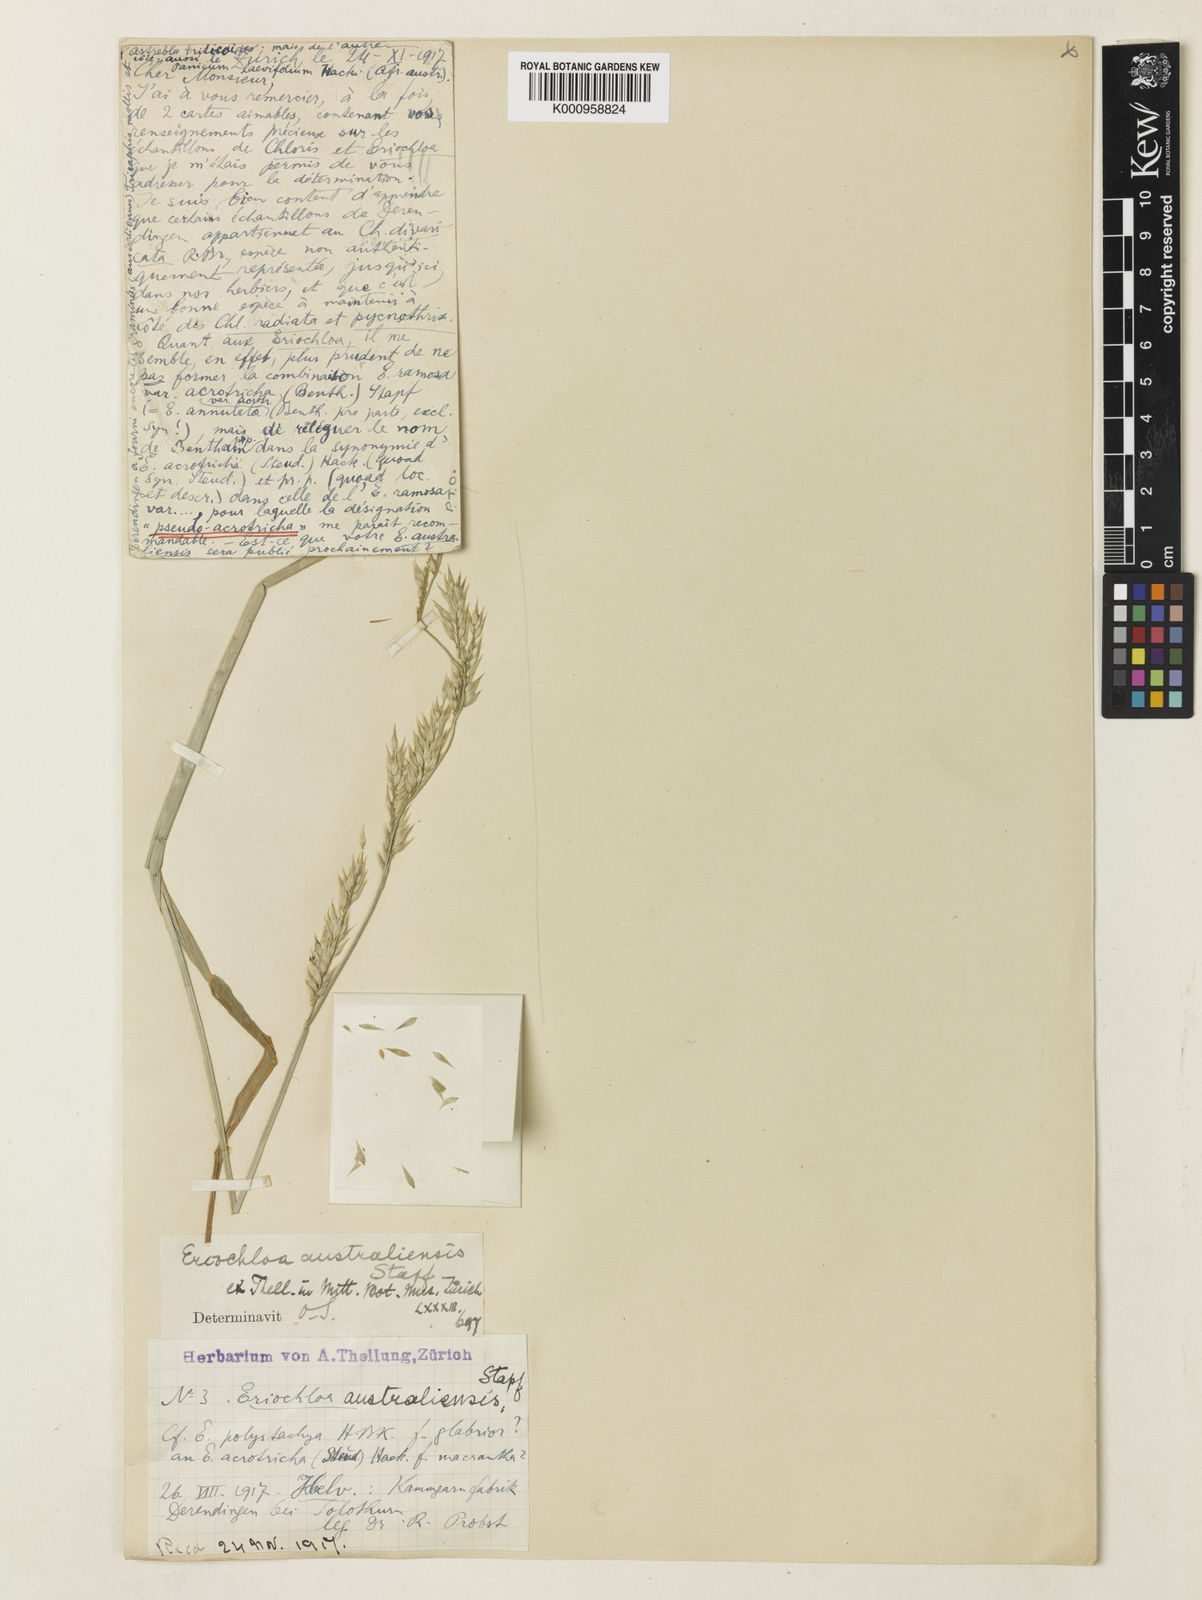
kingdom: Plantae
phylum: Tracheophyta
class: Liliopsida
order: Poales
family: Poaceae
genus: Eriochloa
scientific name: Eriochloa australiensis
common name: Australian cup grass
